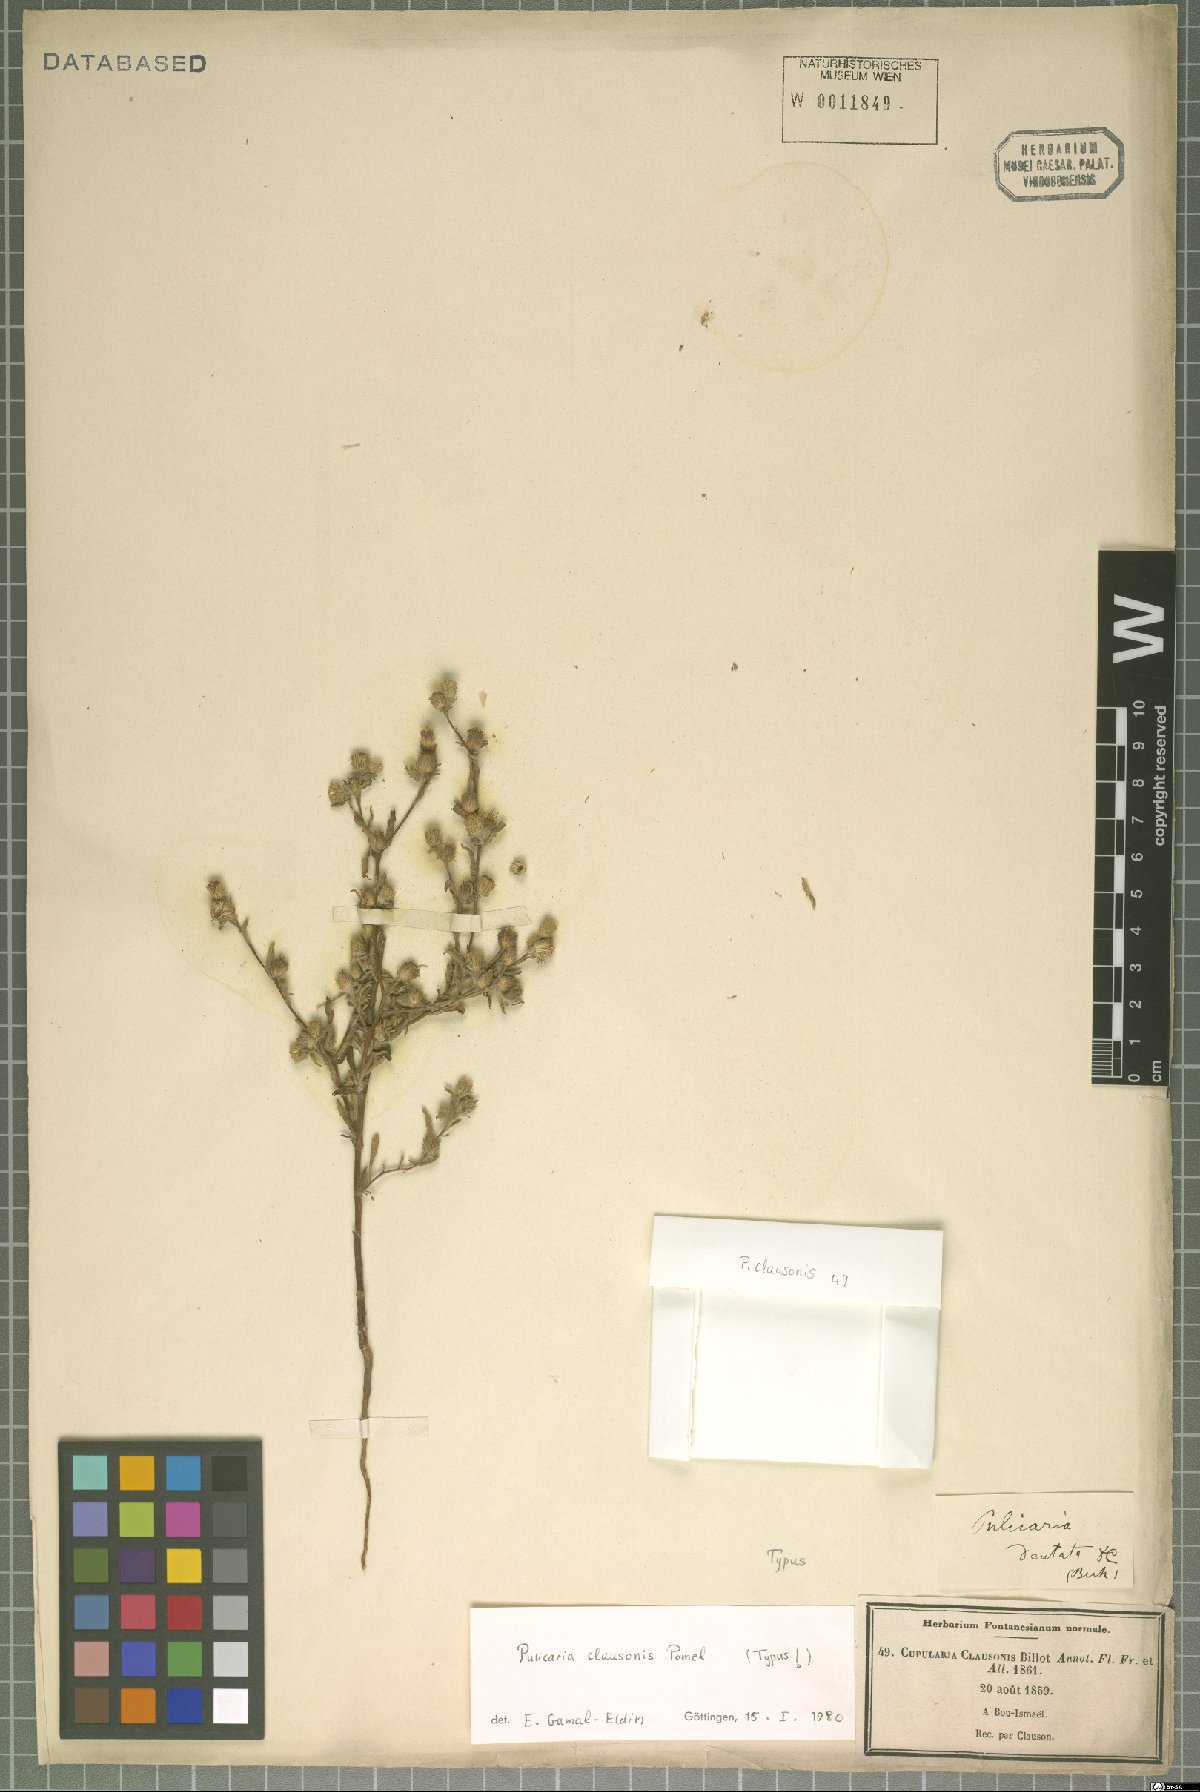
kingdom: Plantae
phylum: Tracheophyta
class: Magnoliopsida
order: Asterales
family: Asteraceae
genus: Pulicaria
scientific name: Pulicaria clausonis
